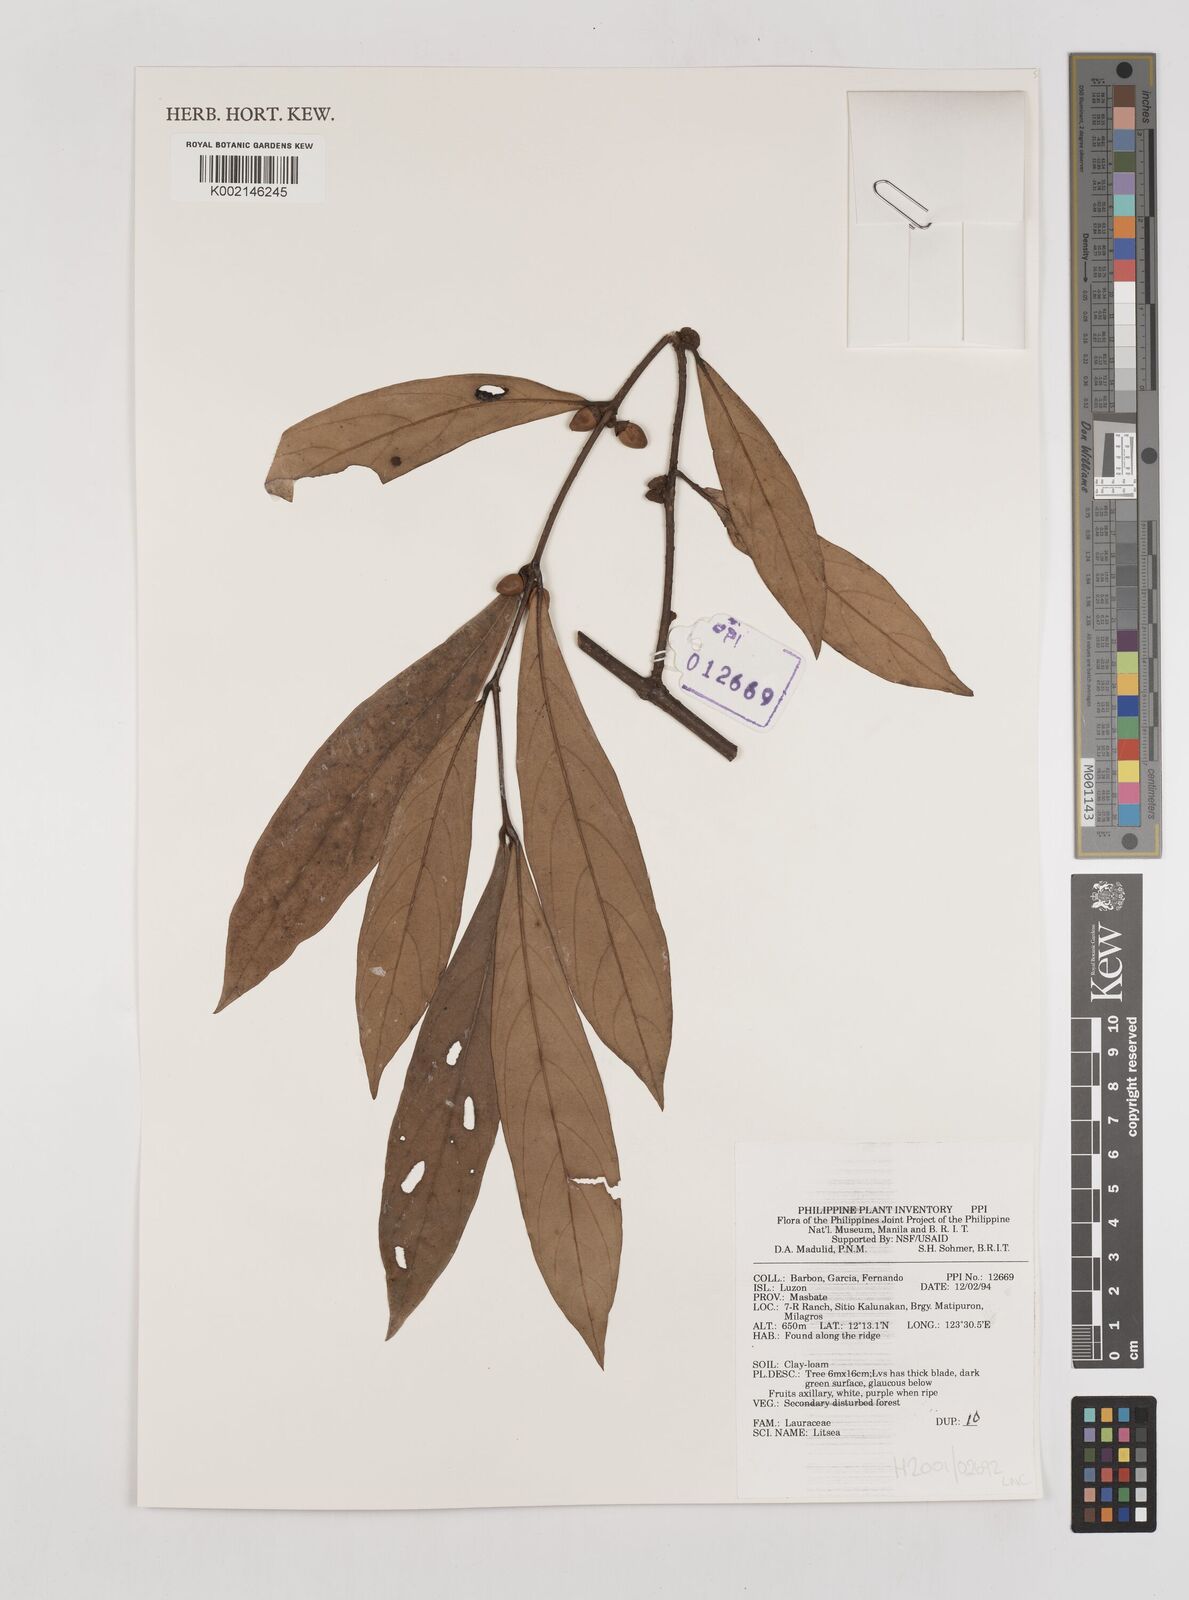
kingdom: Plantae
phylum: Tracheophyta
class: Magnoliopsida
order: Laurales
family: Lauraceae
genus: Litsea
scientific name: Litsea
